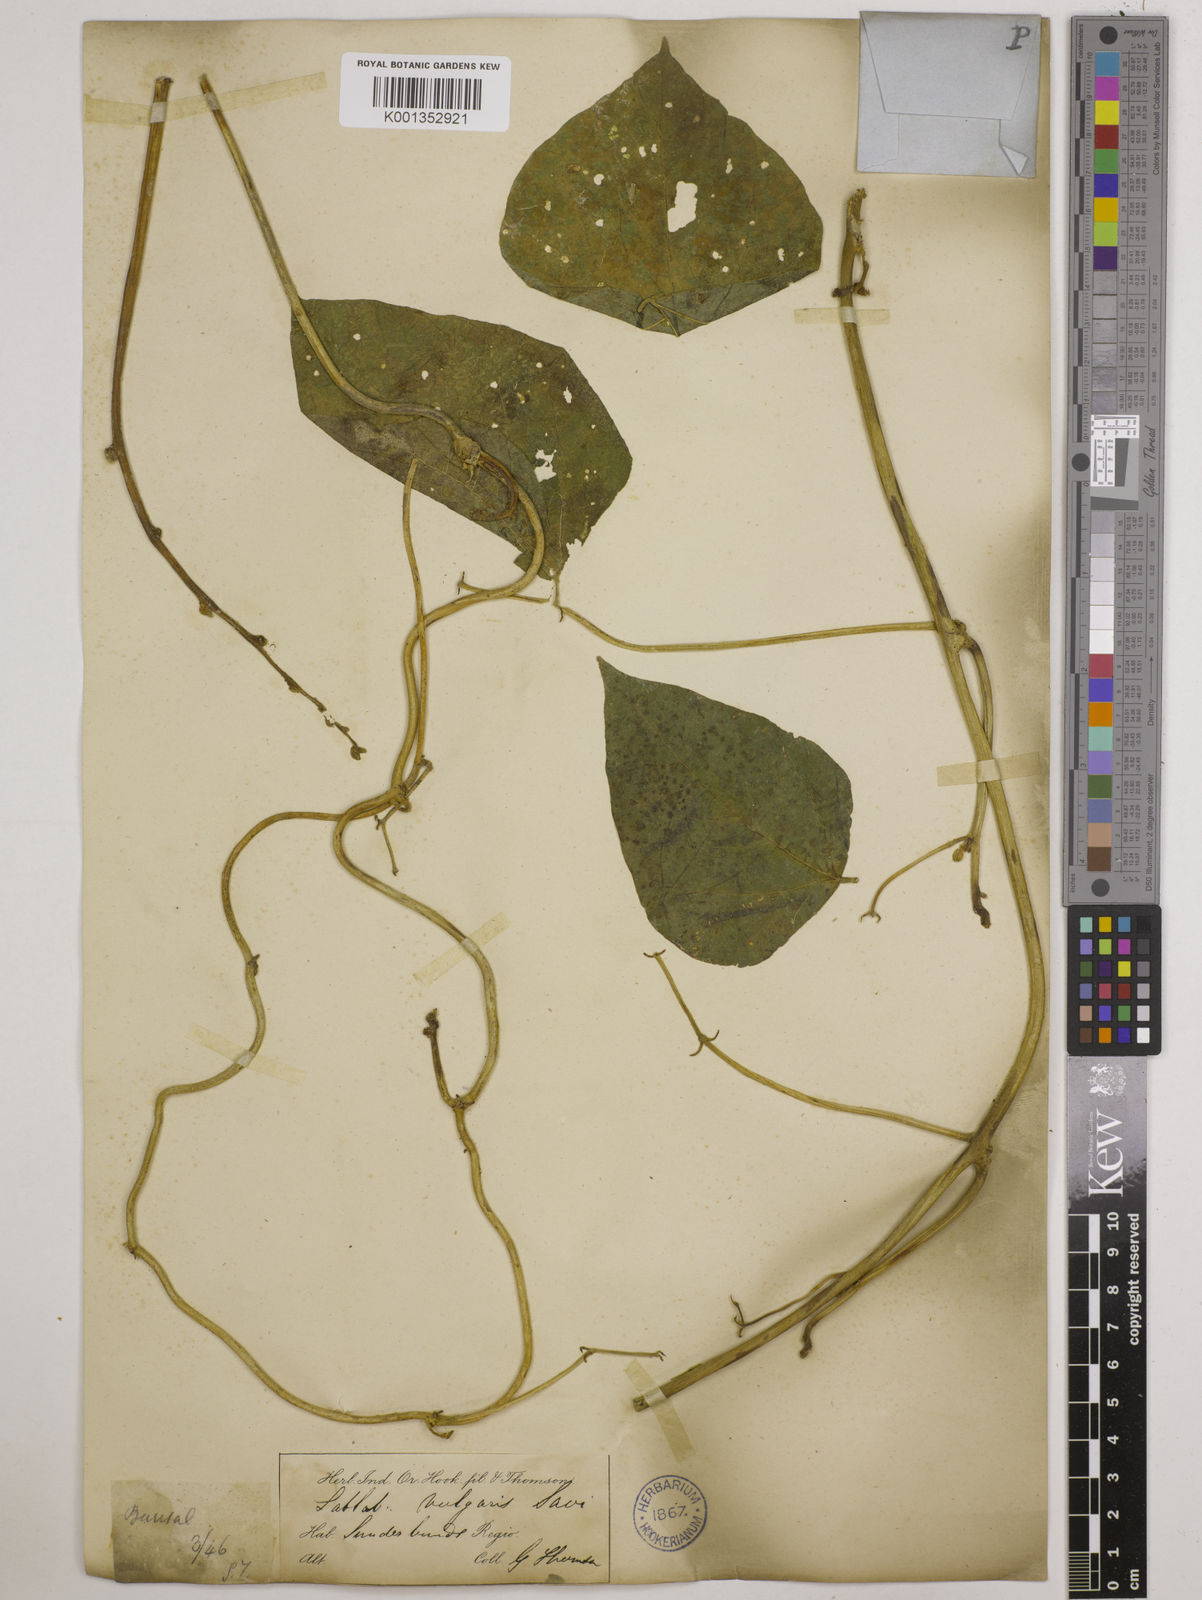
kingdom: Plantae
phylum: Tracheophyta
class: Magnoliopsida
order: Fabales
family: Fabaceae
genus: Lablab
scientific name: Lablab purpureus
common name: Lablab-bean
